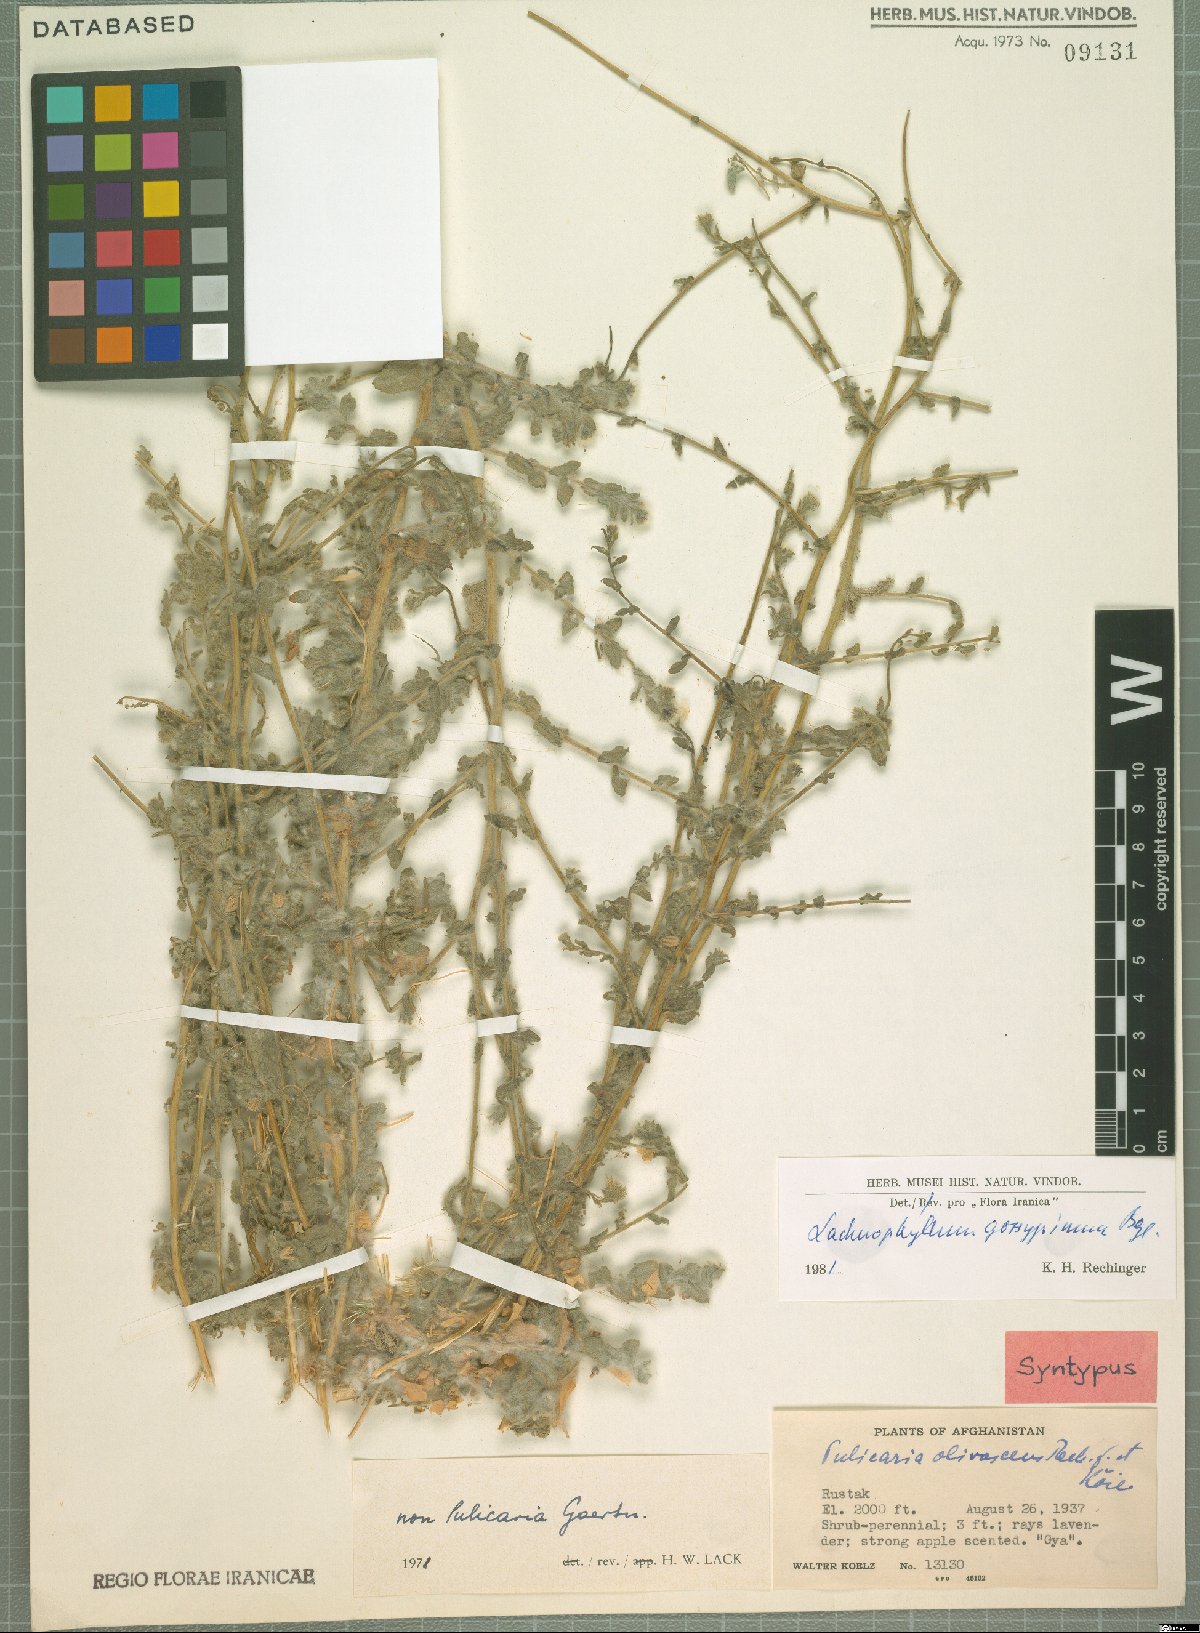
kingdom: Plantae
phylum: Tracheophyta
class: Magnoliopsida
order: Asterales
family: Asteraceae
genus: Lachnophyllum
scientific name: Lachnophyllum gossypinum
